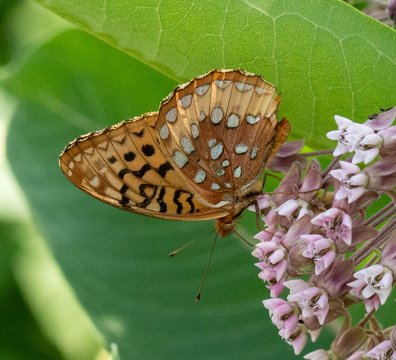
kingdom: Animalia
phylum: Arthropoda
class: Insecta
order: Lepidoptera
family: Nymphalidae
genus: Speyeria
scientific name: Speyeria cybele
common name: Great Spangled Fritillary
